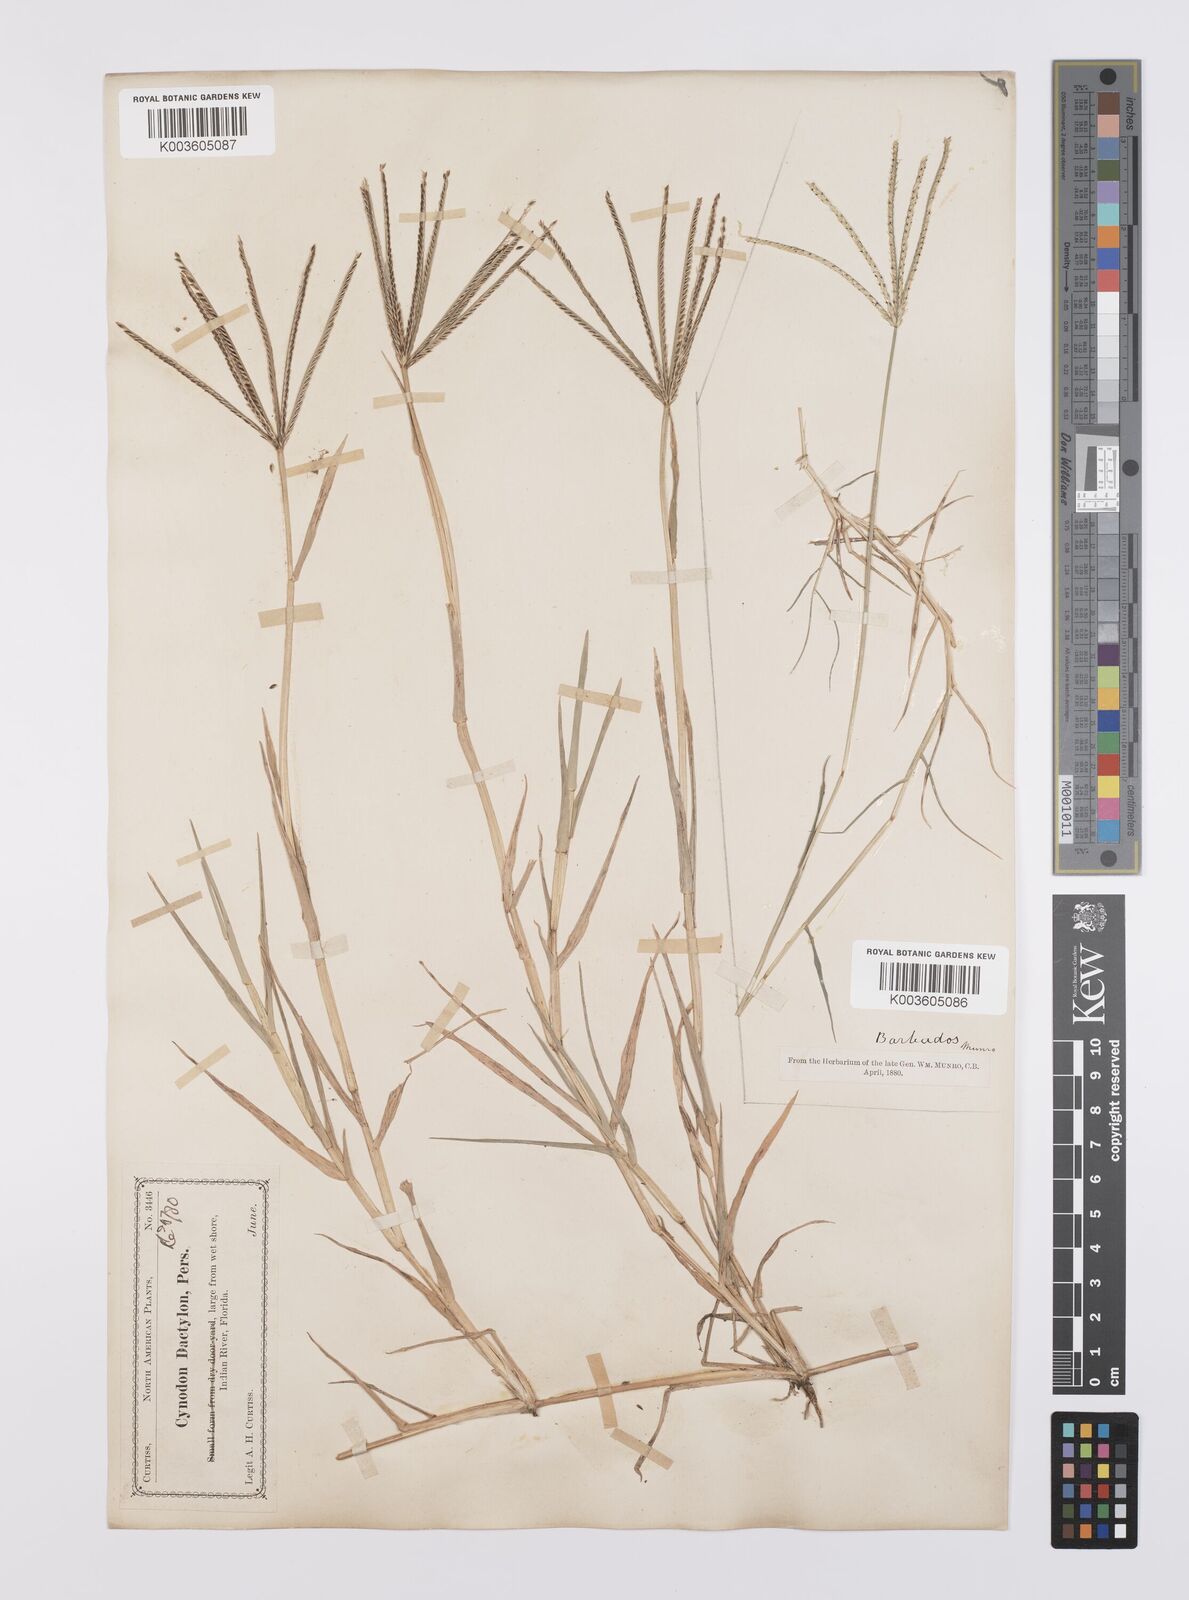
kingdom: Plantae
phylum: Tracheophyta
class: Liliopsida
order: Poales
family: Poaceae
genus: Cynodon
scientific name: Cynodon dactylon
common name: Bermuda grass
